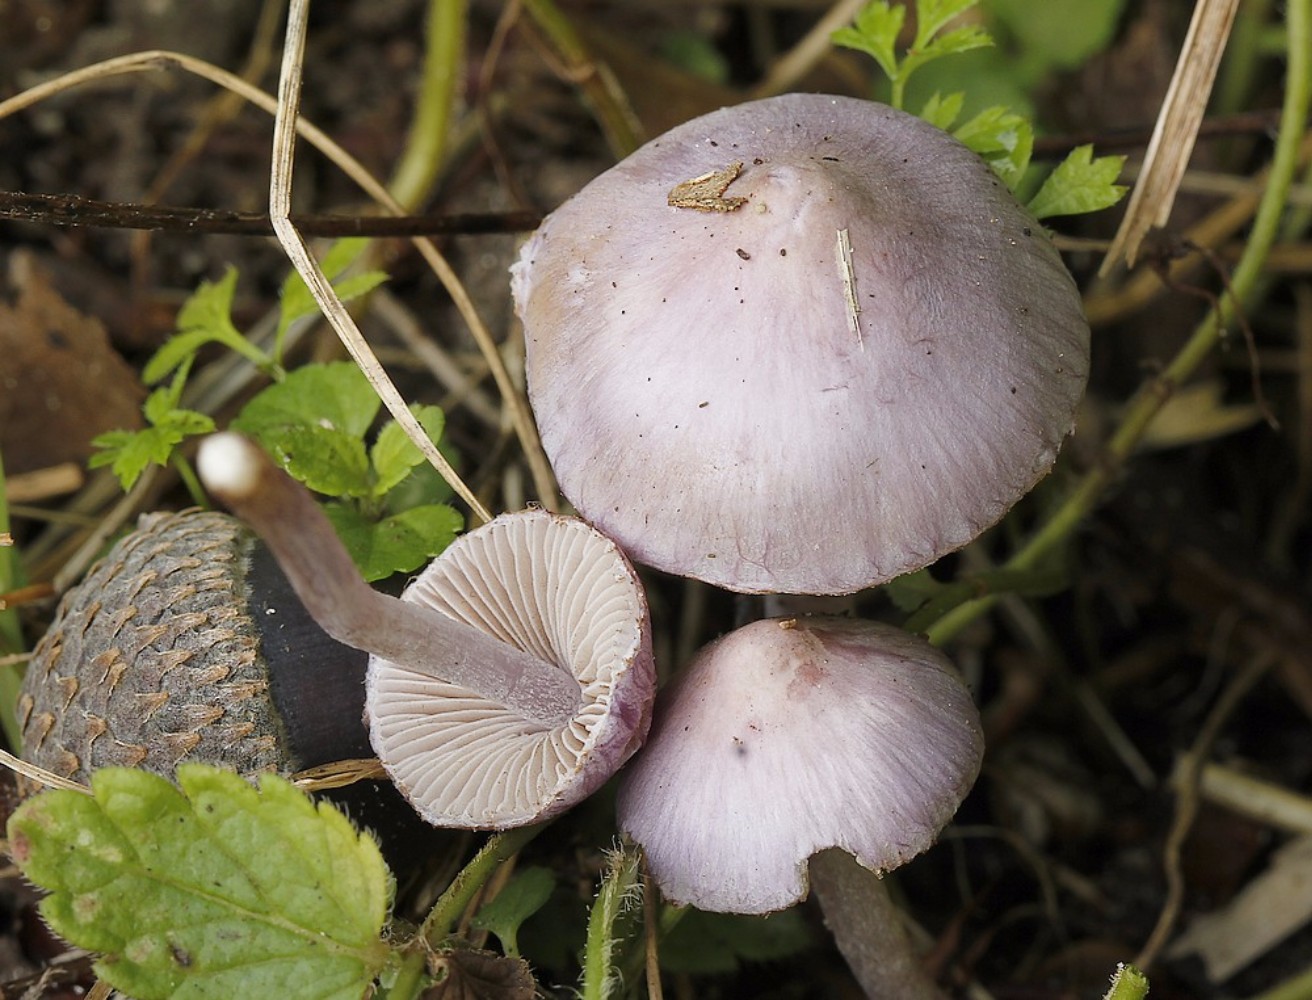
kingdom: Fungi
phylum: Basidiomycota
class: Agaricomycetes
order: Agaricales
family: Inocybaceae
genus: Inocybe
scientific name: Inocybe geophylla
